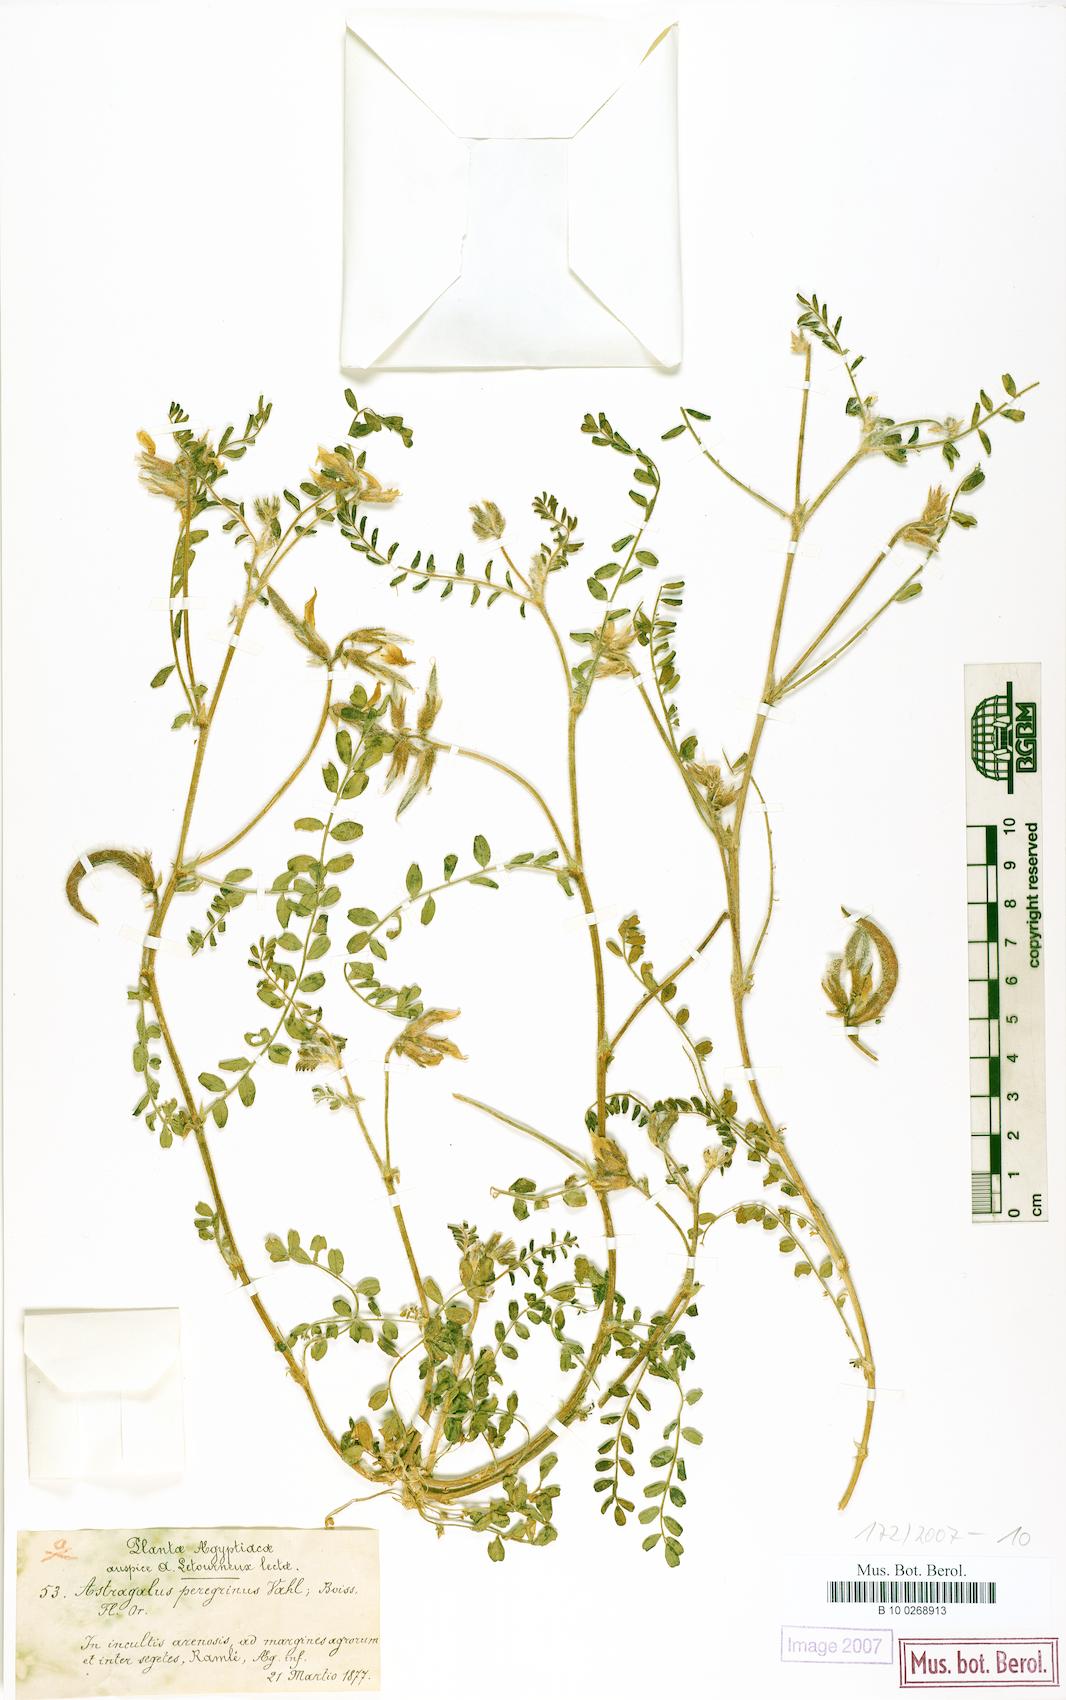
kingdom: Plantae
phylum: Tracheophyta
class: Magnoliopsida
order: Fabales
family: Fabaceae
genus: Astragalus
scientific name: Astragalus peregrinus
